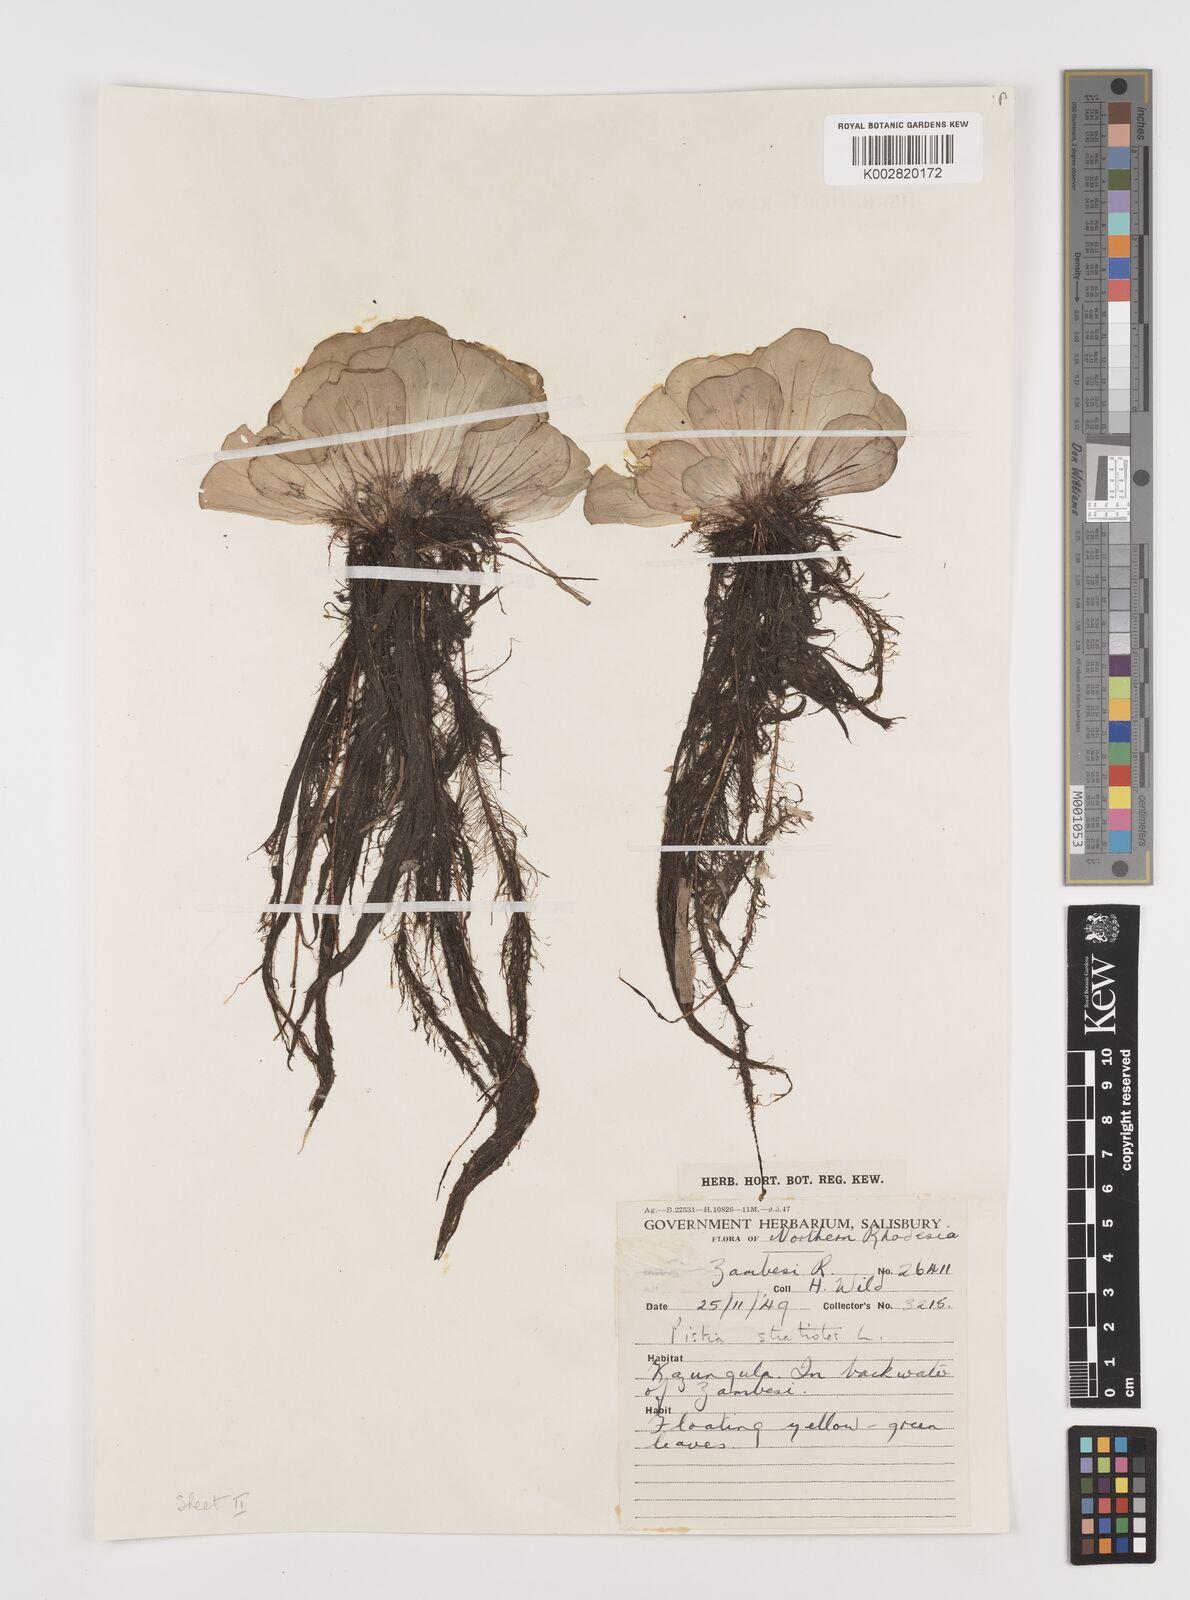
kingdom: Plantae
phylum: Tracheophyta
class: Liliopsida
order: Alismatales
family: Araceae
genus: Pistia
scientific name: Pistia stratiotes
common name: Water lettuce
